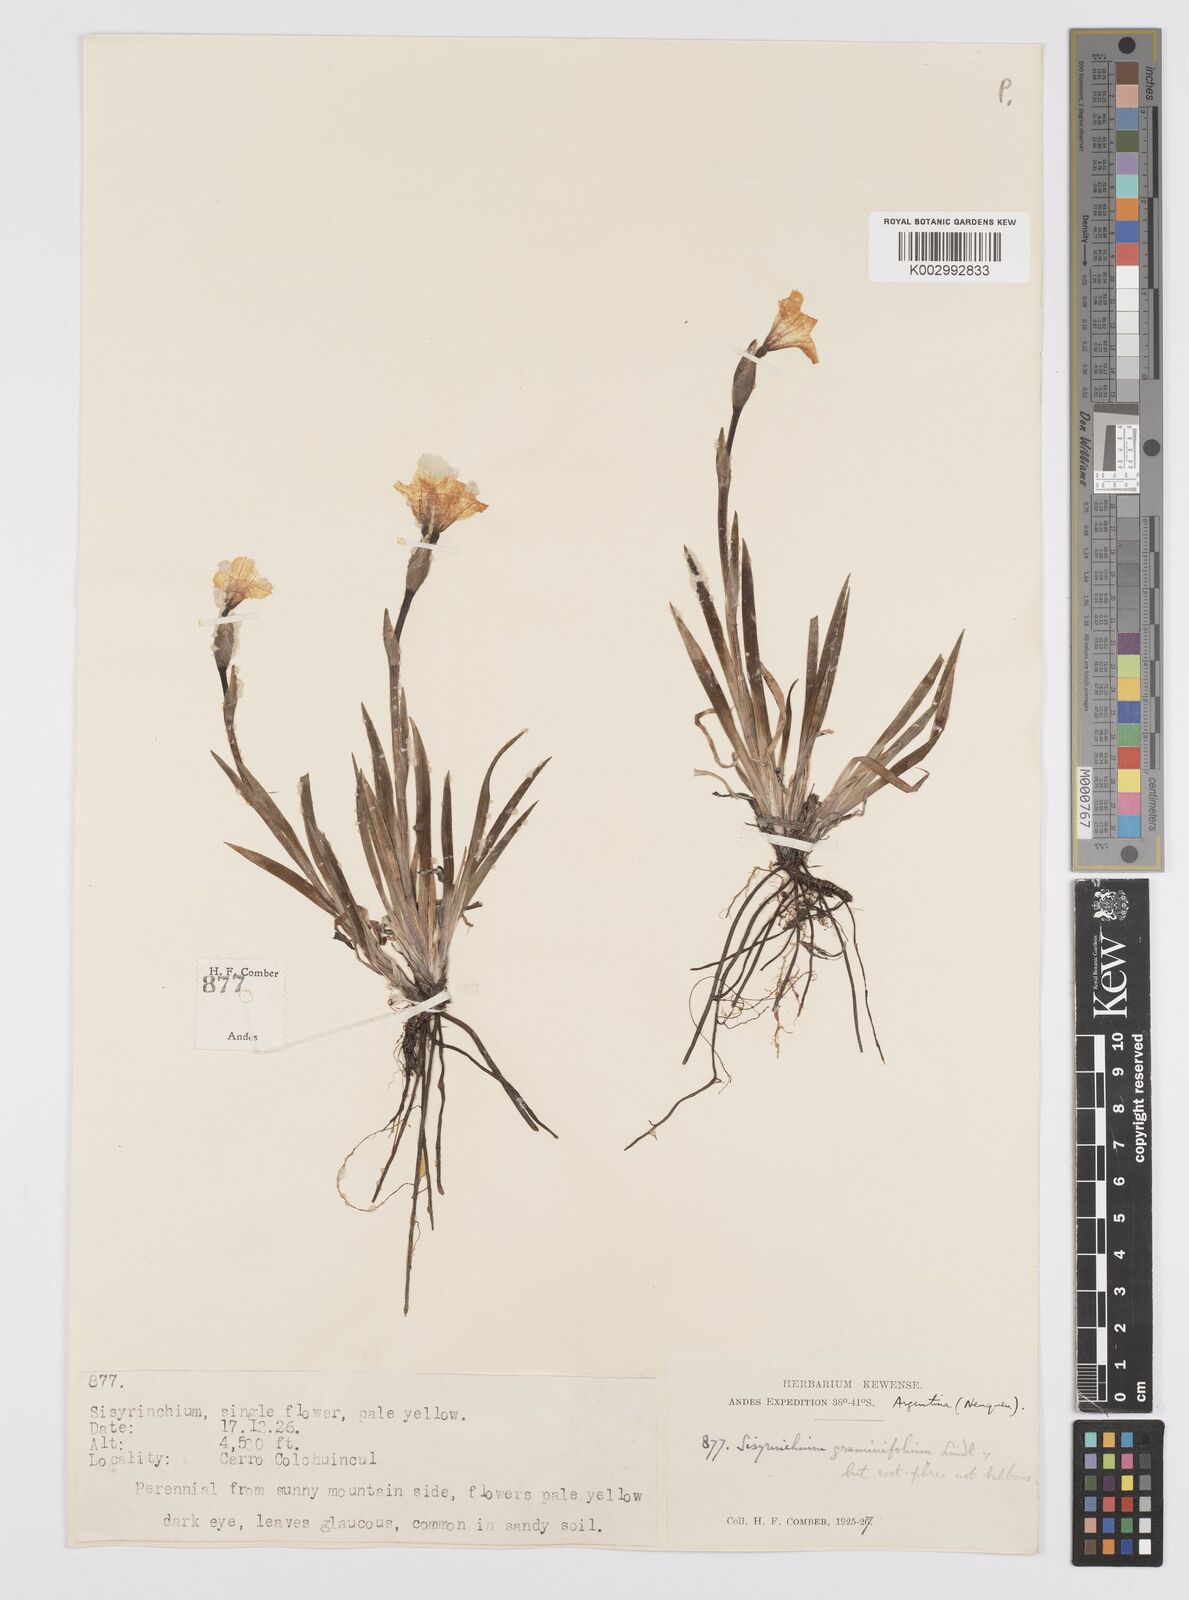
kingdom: Plantae
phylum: Tracheophyta
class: Liliopsida
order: Asparagales
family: Iridaceae
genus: Sisyrinchium
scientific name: Sisyrinchium graminifolium
